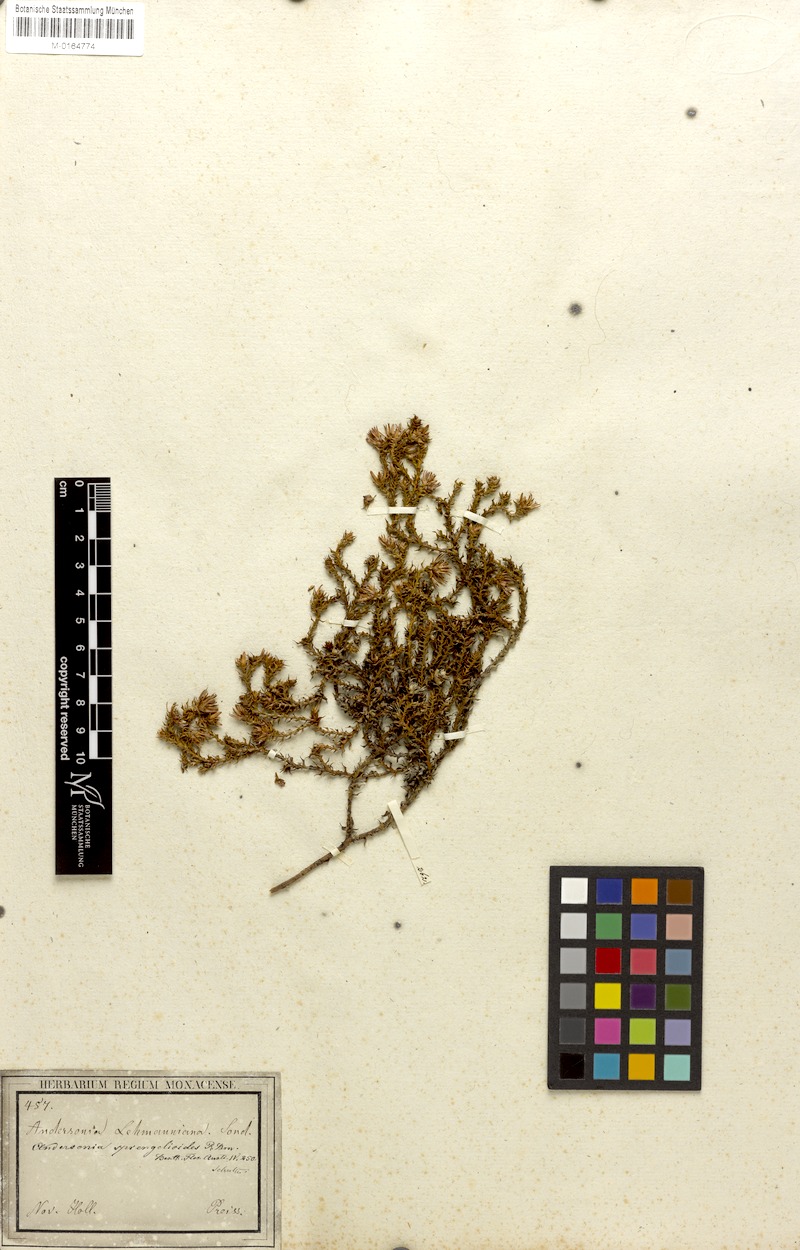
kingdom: Plantae
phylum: Tracheophyta
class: Magnoliopsida
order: Ericales
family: Ericaceae
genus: Andersonia
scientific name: Andersonia lehmanniana
